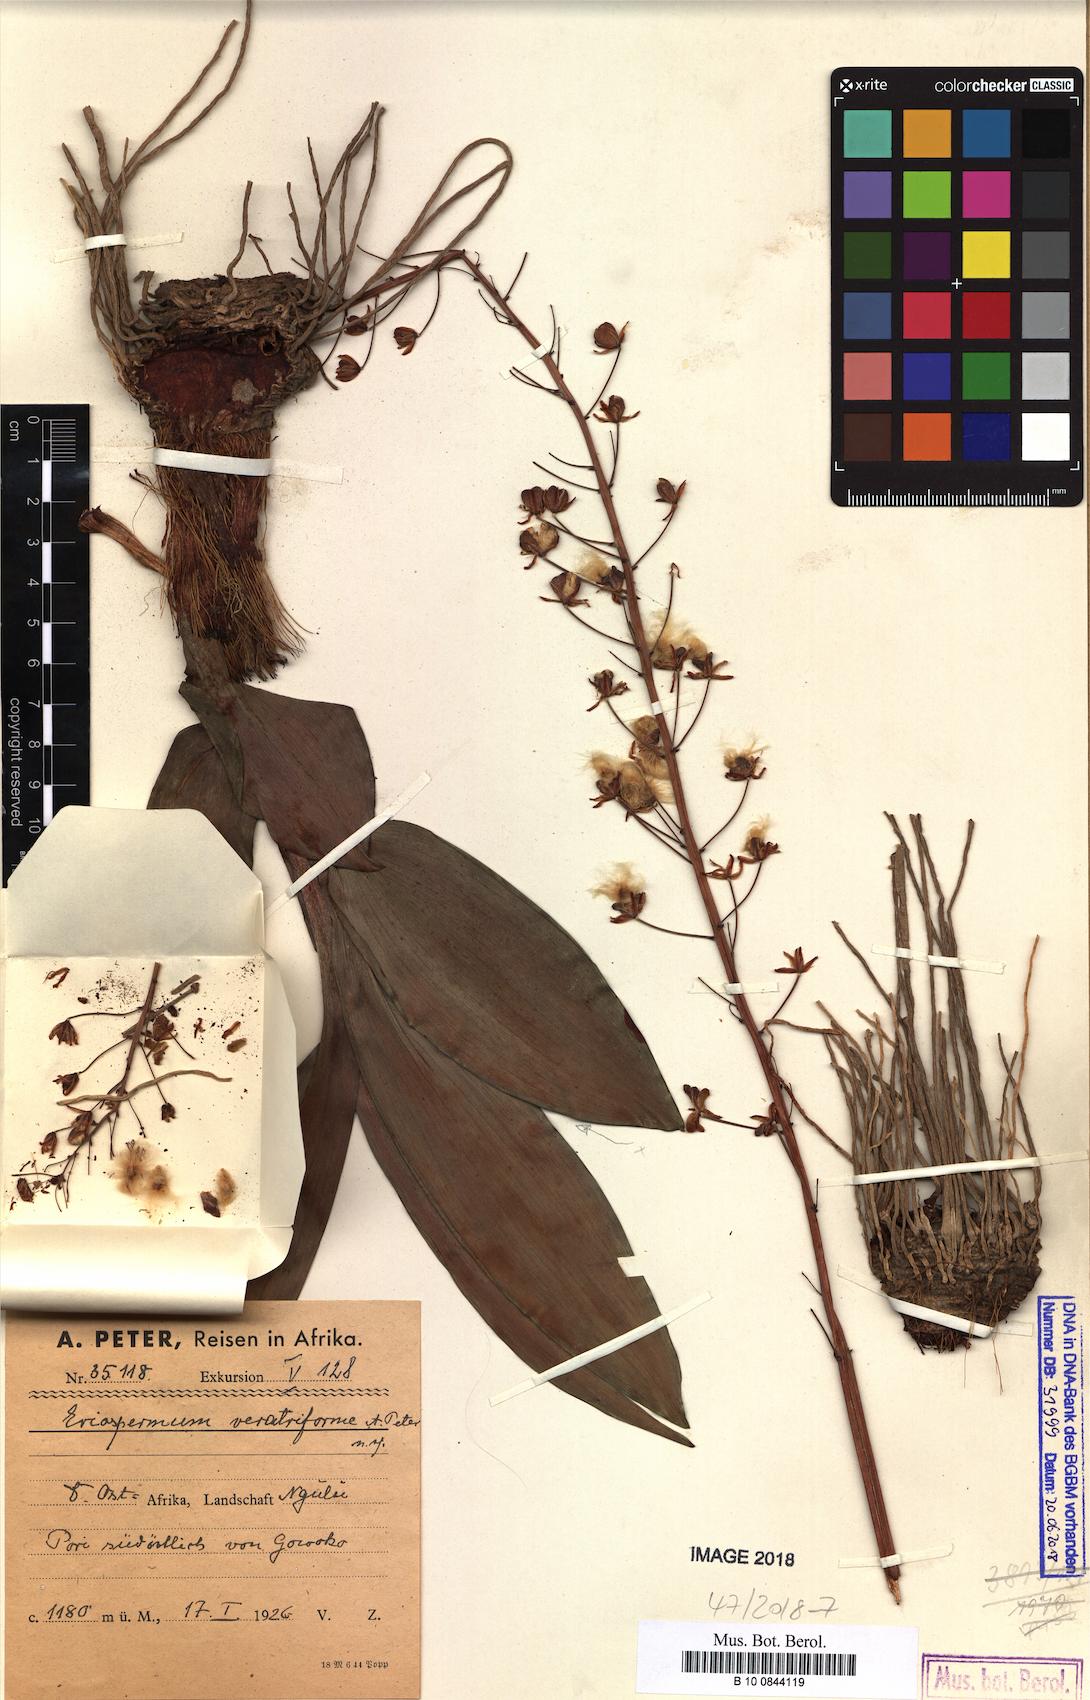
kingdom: Plantae
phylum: Tracheophyta
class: Liliopsida
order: Asparagales
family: Asparagaceae
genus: Eriospermum
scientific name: Eriospermum mackenii
